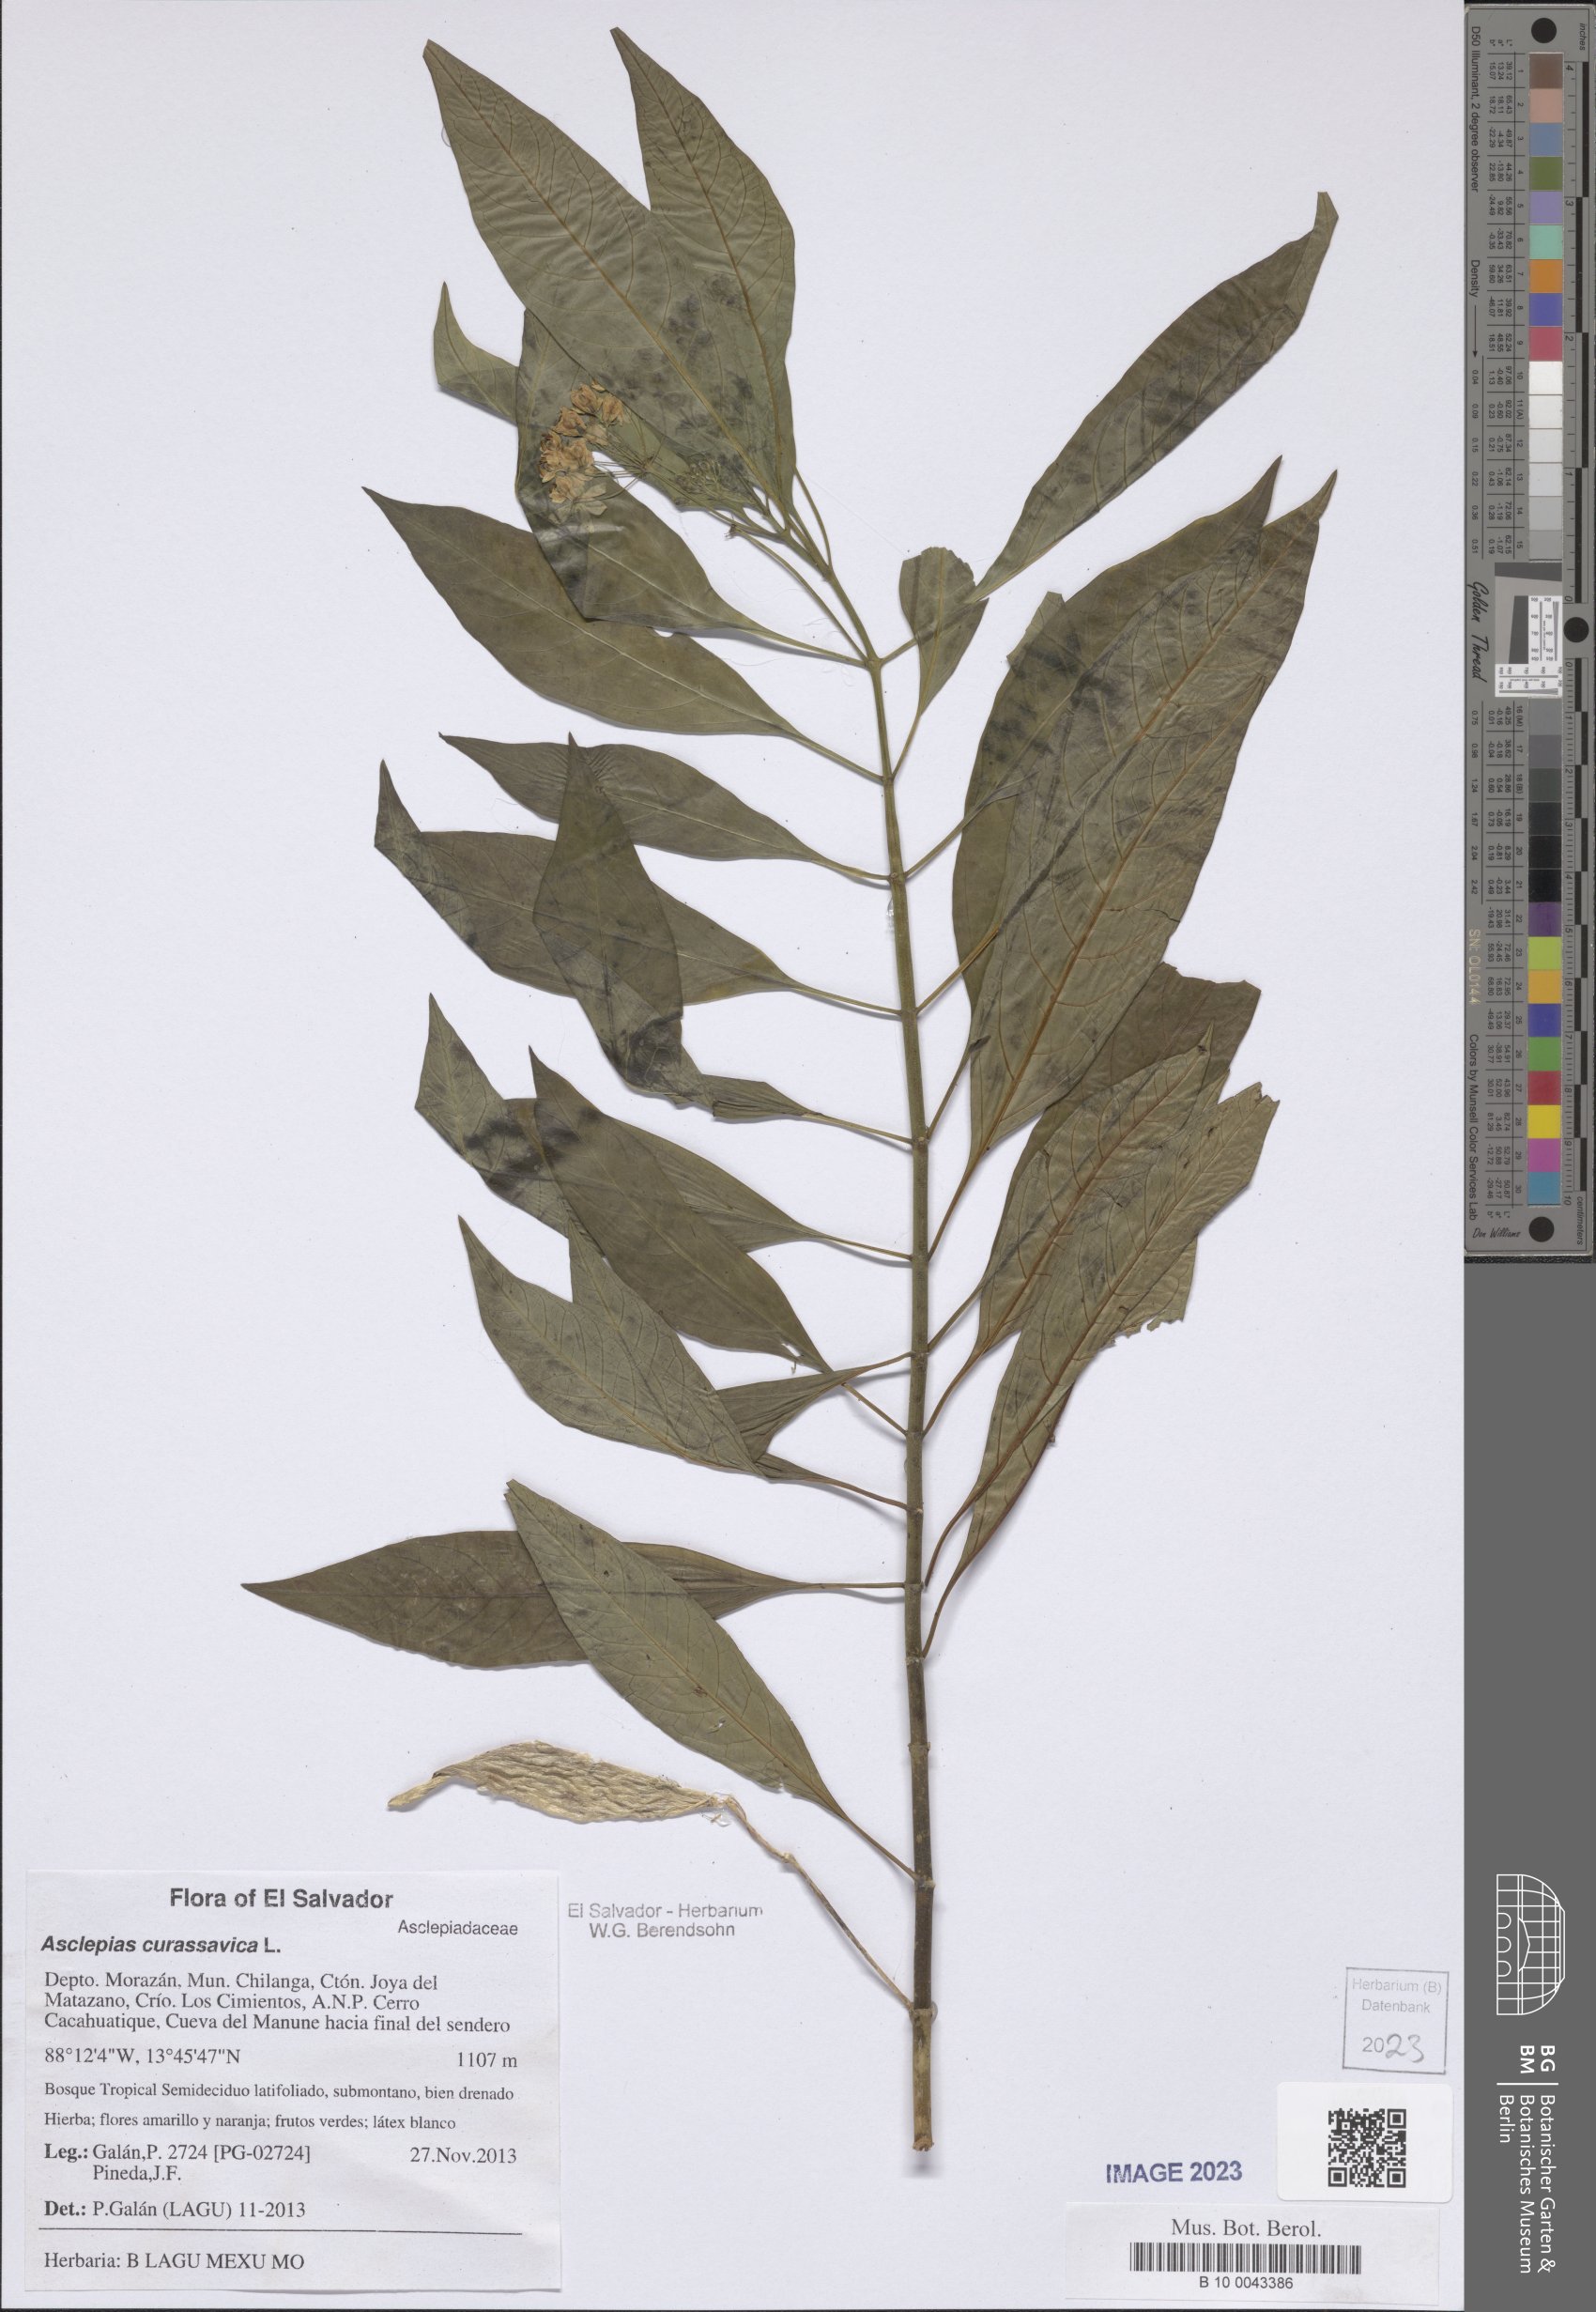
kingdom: Plantae
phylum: Tracheophyta
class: Magnoliopsida
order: Gentianales
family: Apocynaceae
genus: Asclepias
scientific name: Asclepias curassavica
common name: Bloodflower
